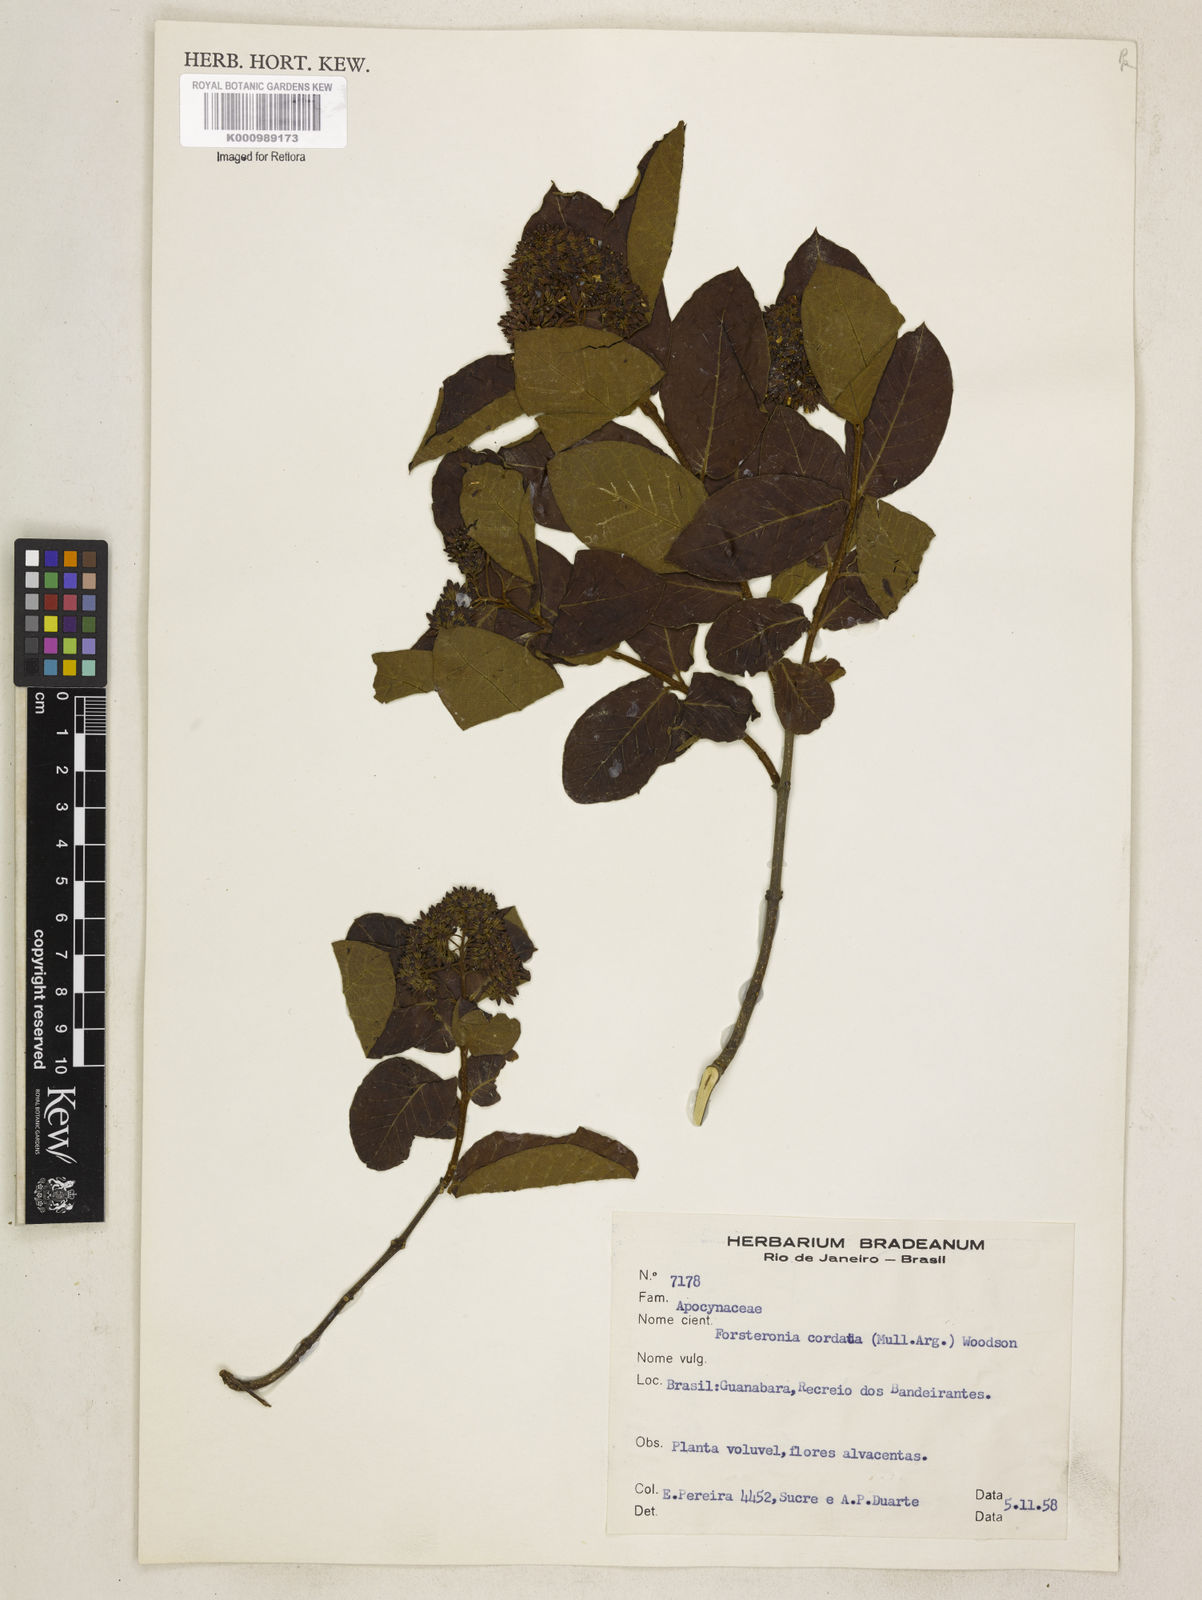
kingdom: Plantae
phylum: Tracheophyta
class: Magnoliopsida
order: Gentianales
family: Apocynaceae
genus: Forsteronia
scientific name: Forsteronia
